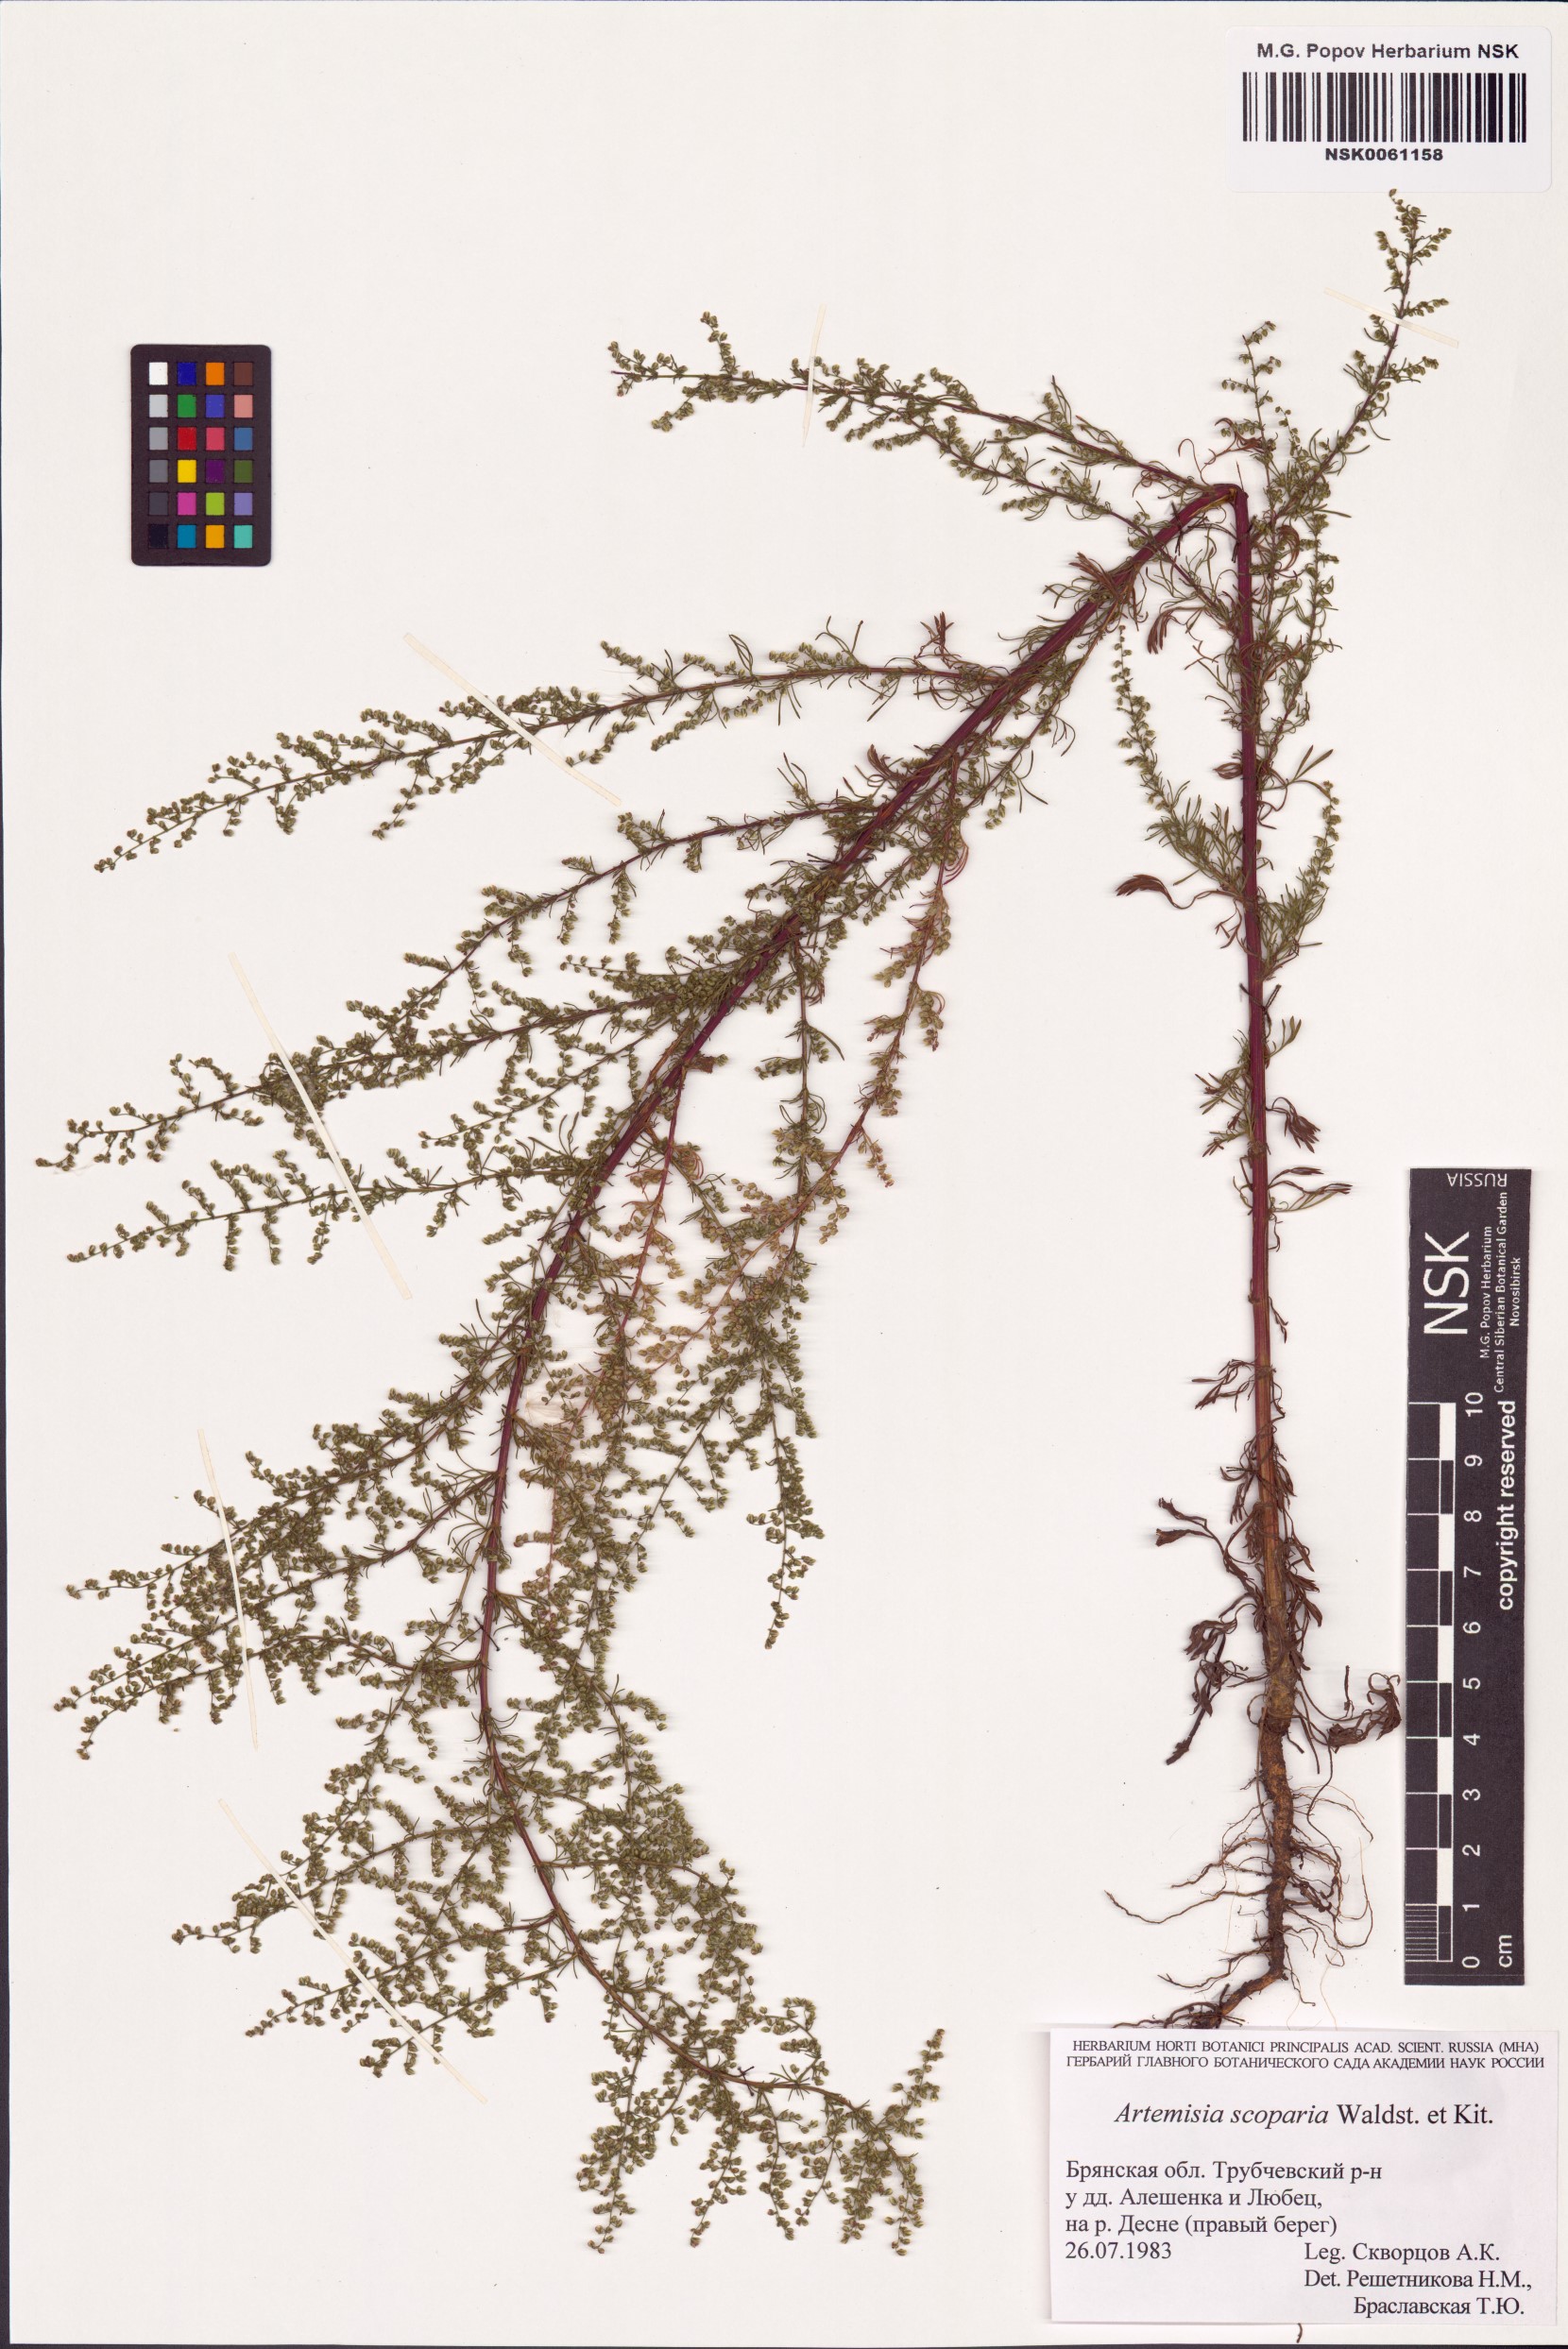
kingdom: Plantae
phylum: Tracheophyta
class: Magnoliopsida
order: Asterales
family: Asteraceae
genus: Artemisia
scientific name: Artemisia scoparia
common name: Redstem wormwood
